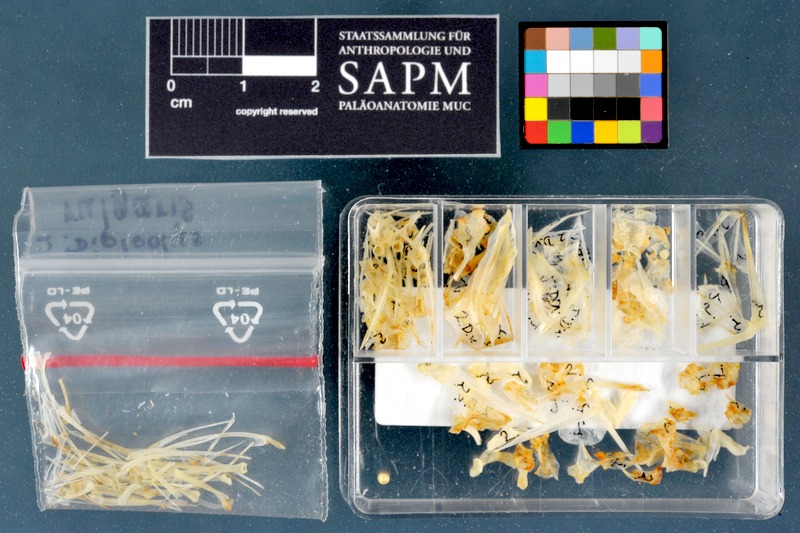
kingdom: Animalia
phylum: Chordata
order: Perciformes
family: Sparidae
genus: Diplodus
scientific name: Diplodus vulgaris
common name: Common two-banded seabream
